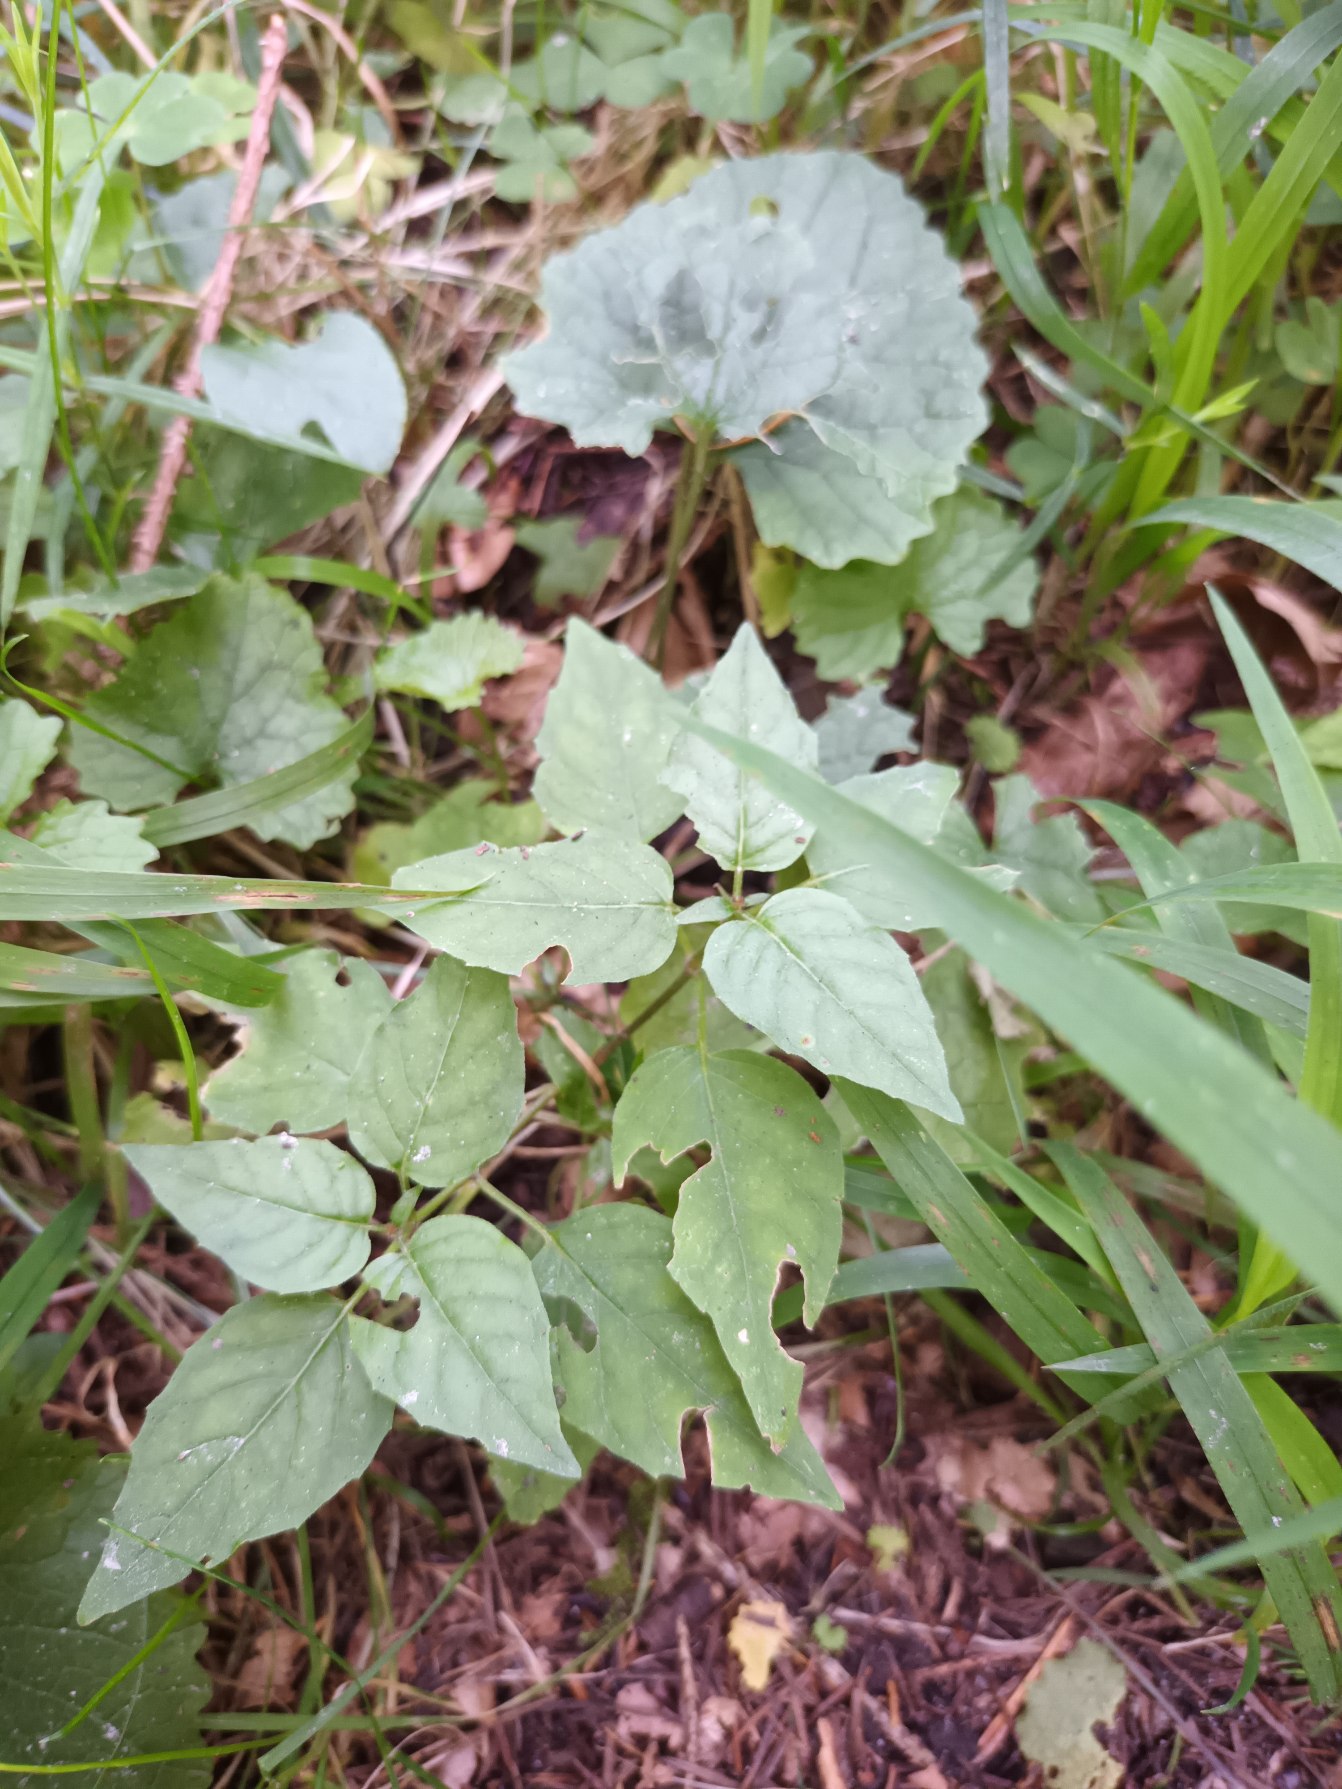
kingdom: Plantae
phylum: Tracheophyta
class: Magnoliopsida
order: Myrtales
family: Onagraceae
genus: Circaea
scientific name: Circaea lutetiana
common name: Dunet steffensurt
